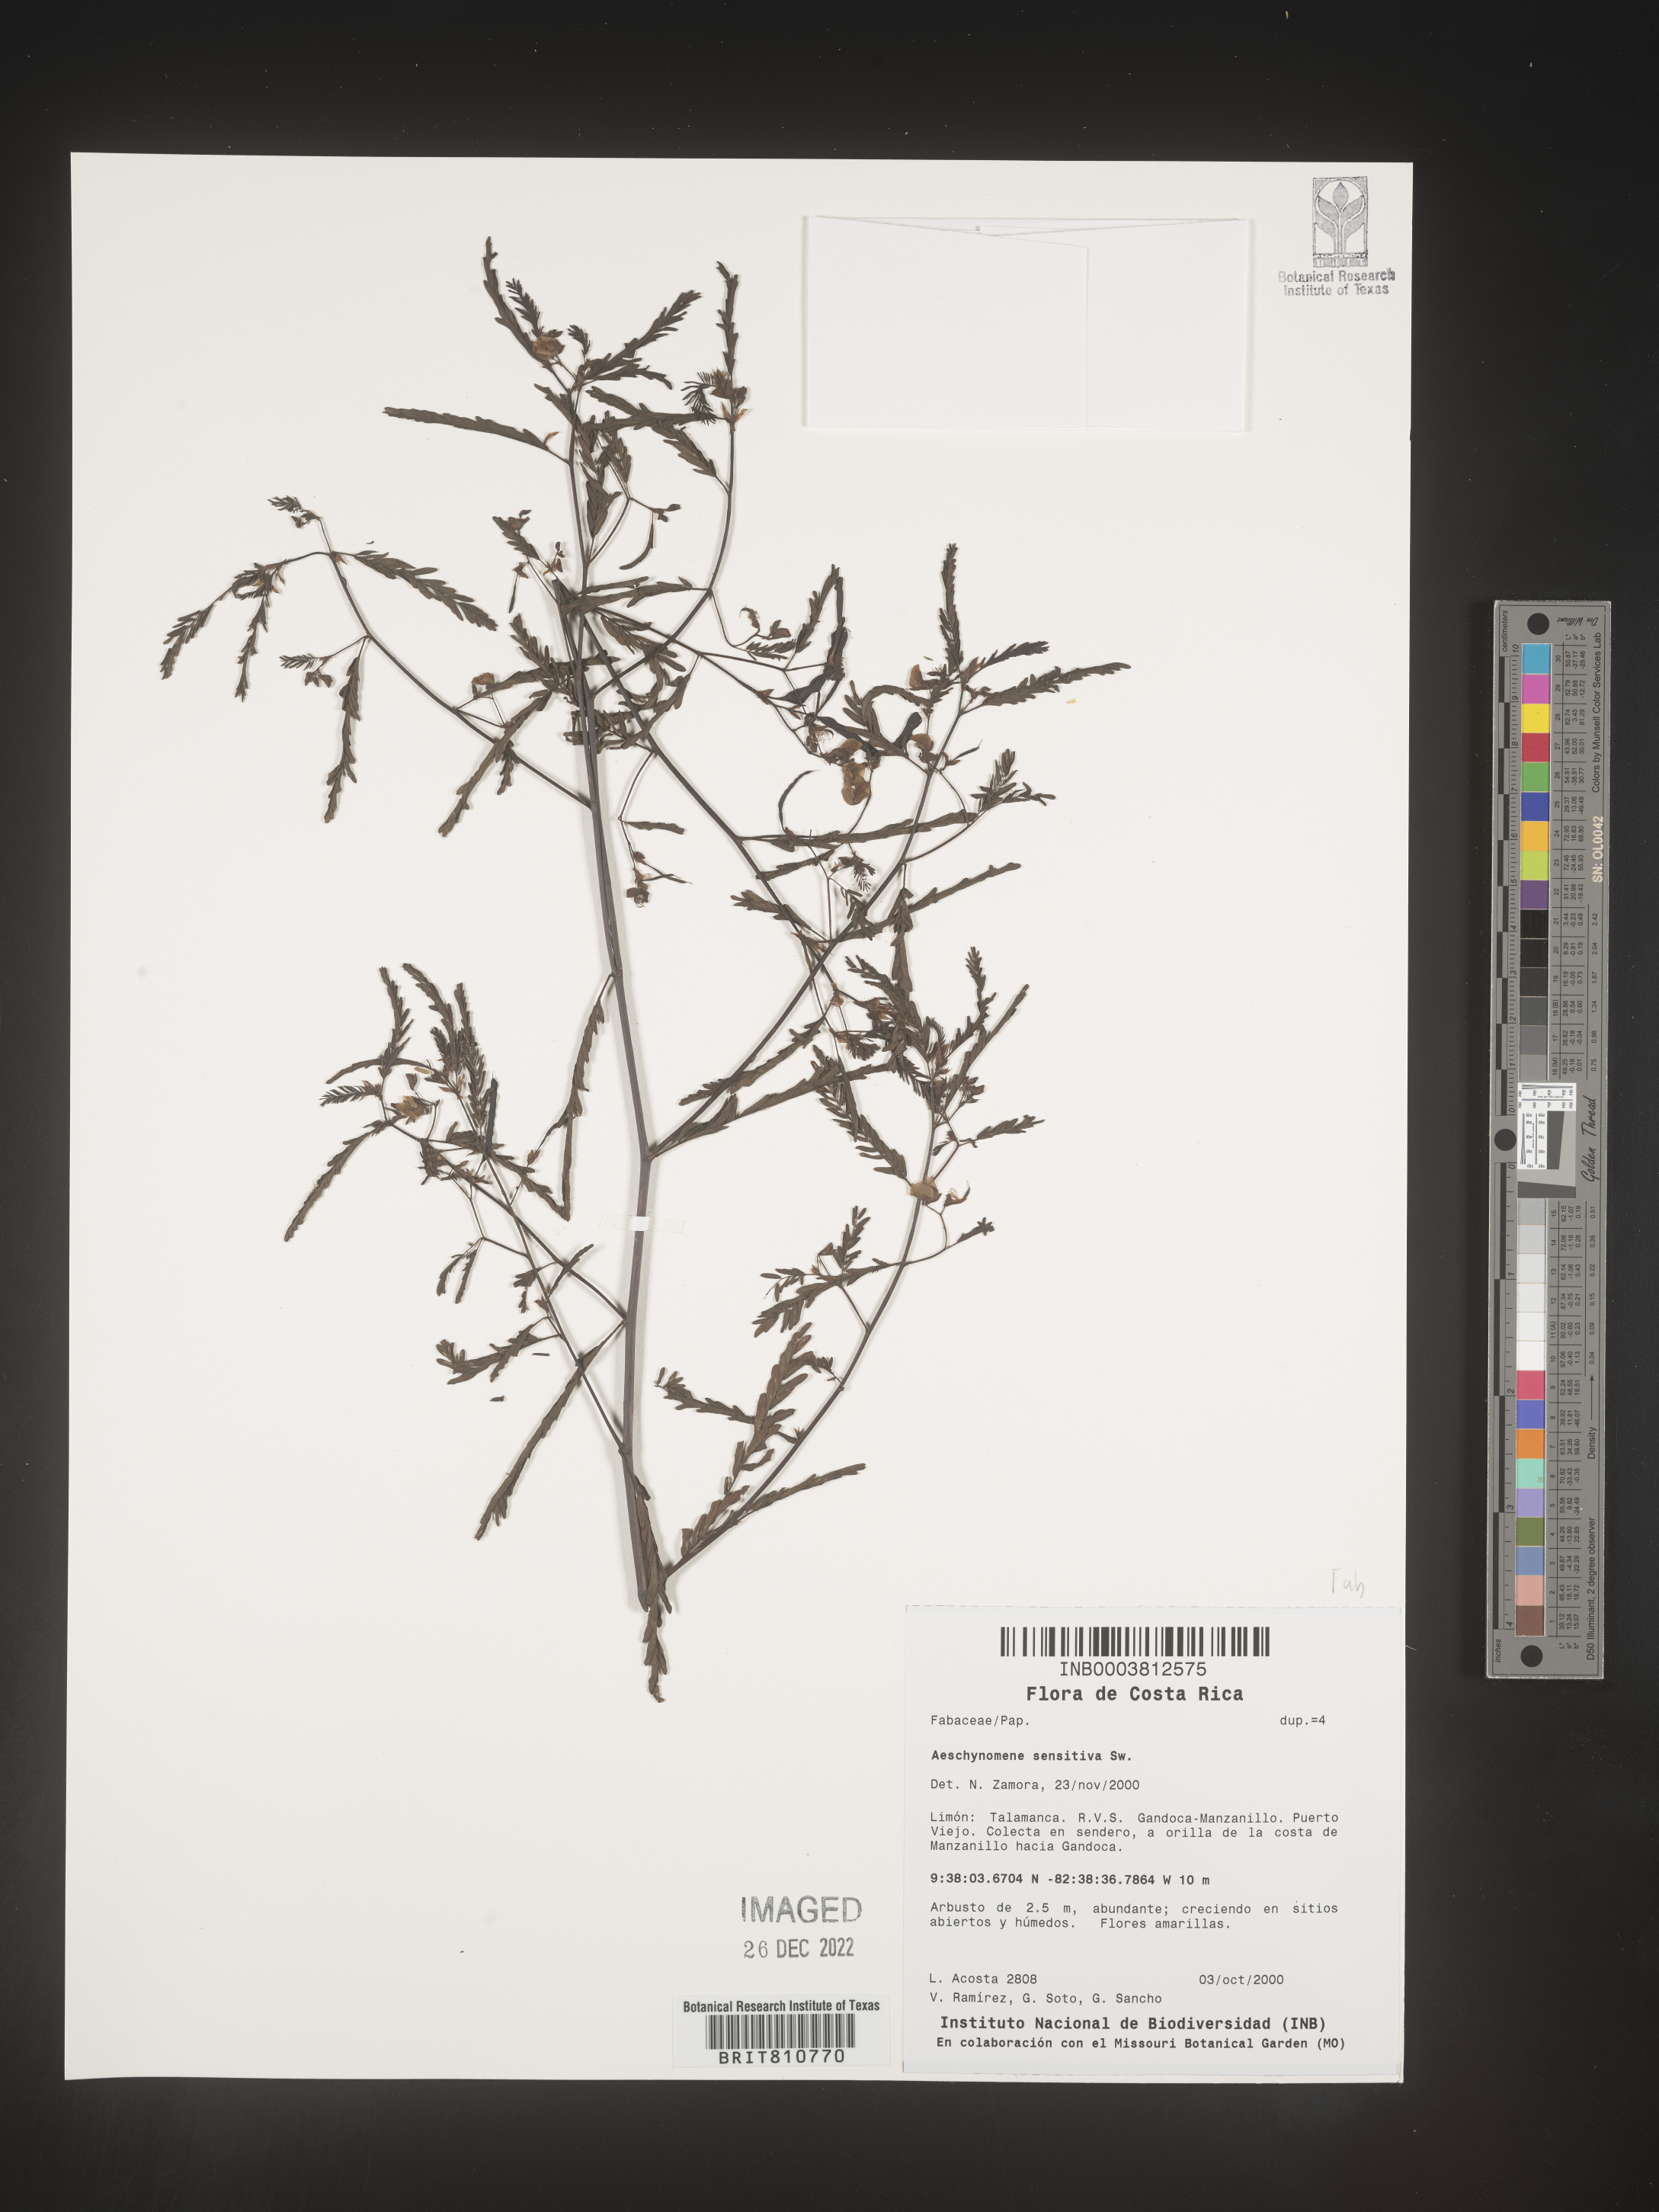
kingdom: Plantae
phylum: Tracheophyta
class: Magnoliopsida
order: Fabales
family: Fabaceae
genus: Aeschynomene
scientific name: Aeschynomene
